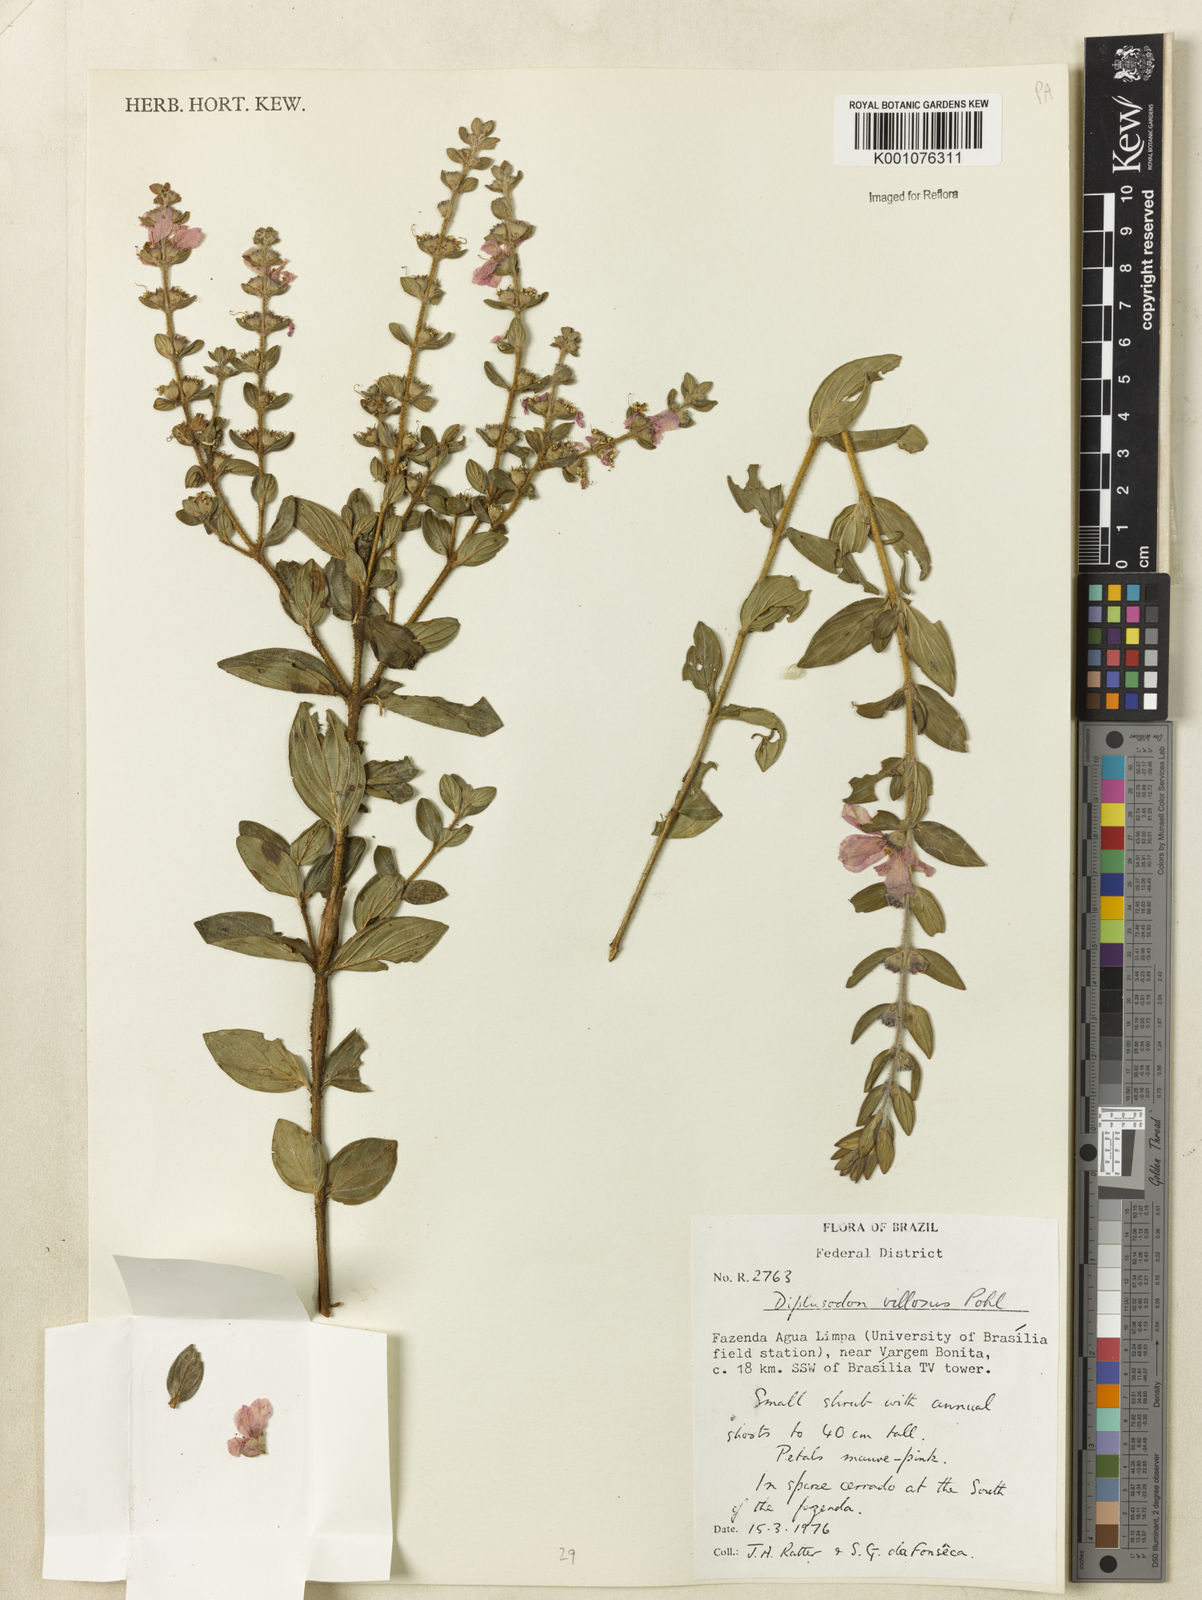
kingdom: Plantae
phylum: Tracheophyta
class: Magnoliopsida
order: Myrtales
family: Lythraceae
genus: Diplusodon
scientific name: Diplusodon villosus
